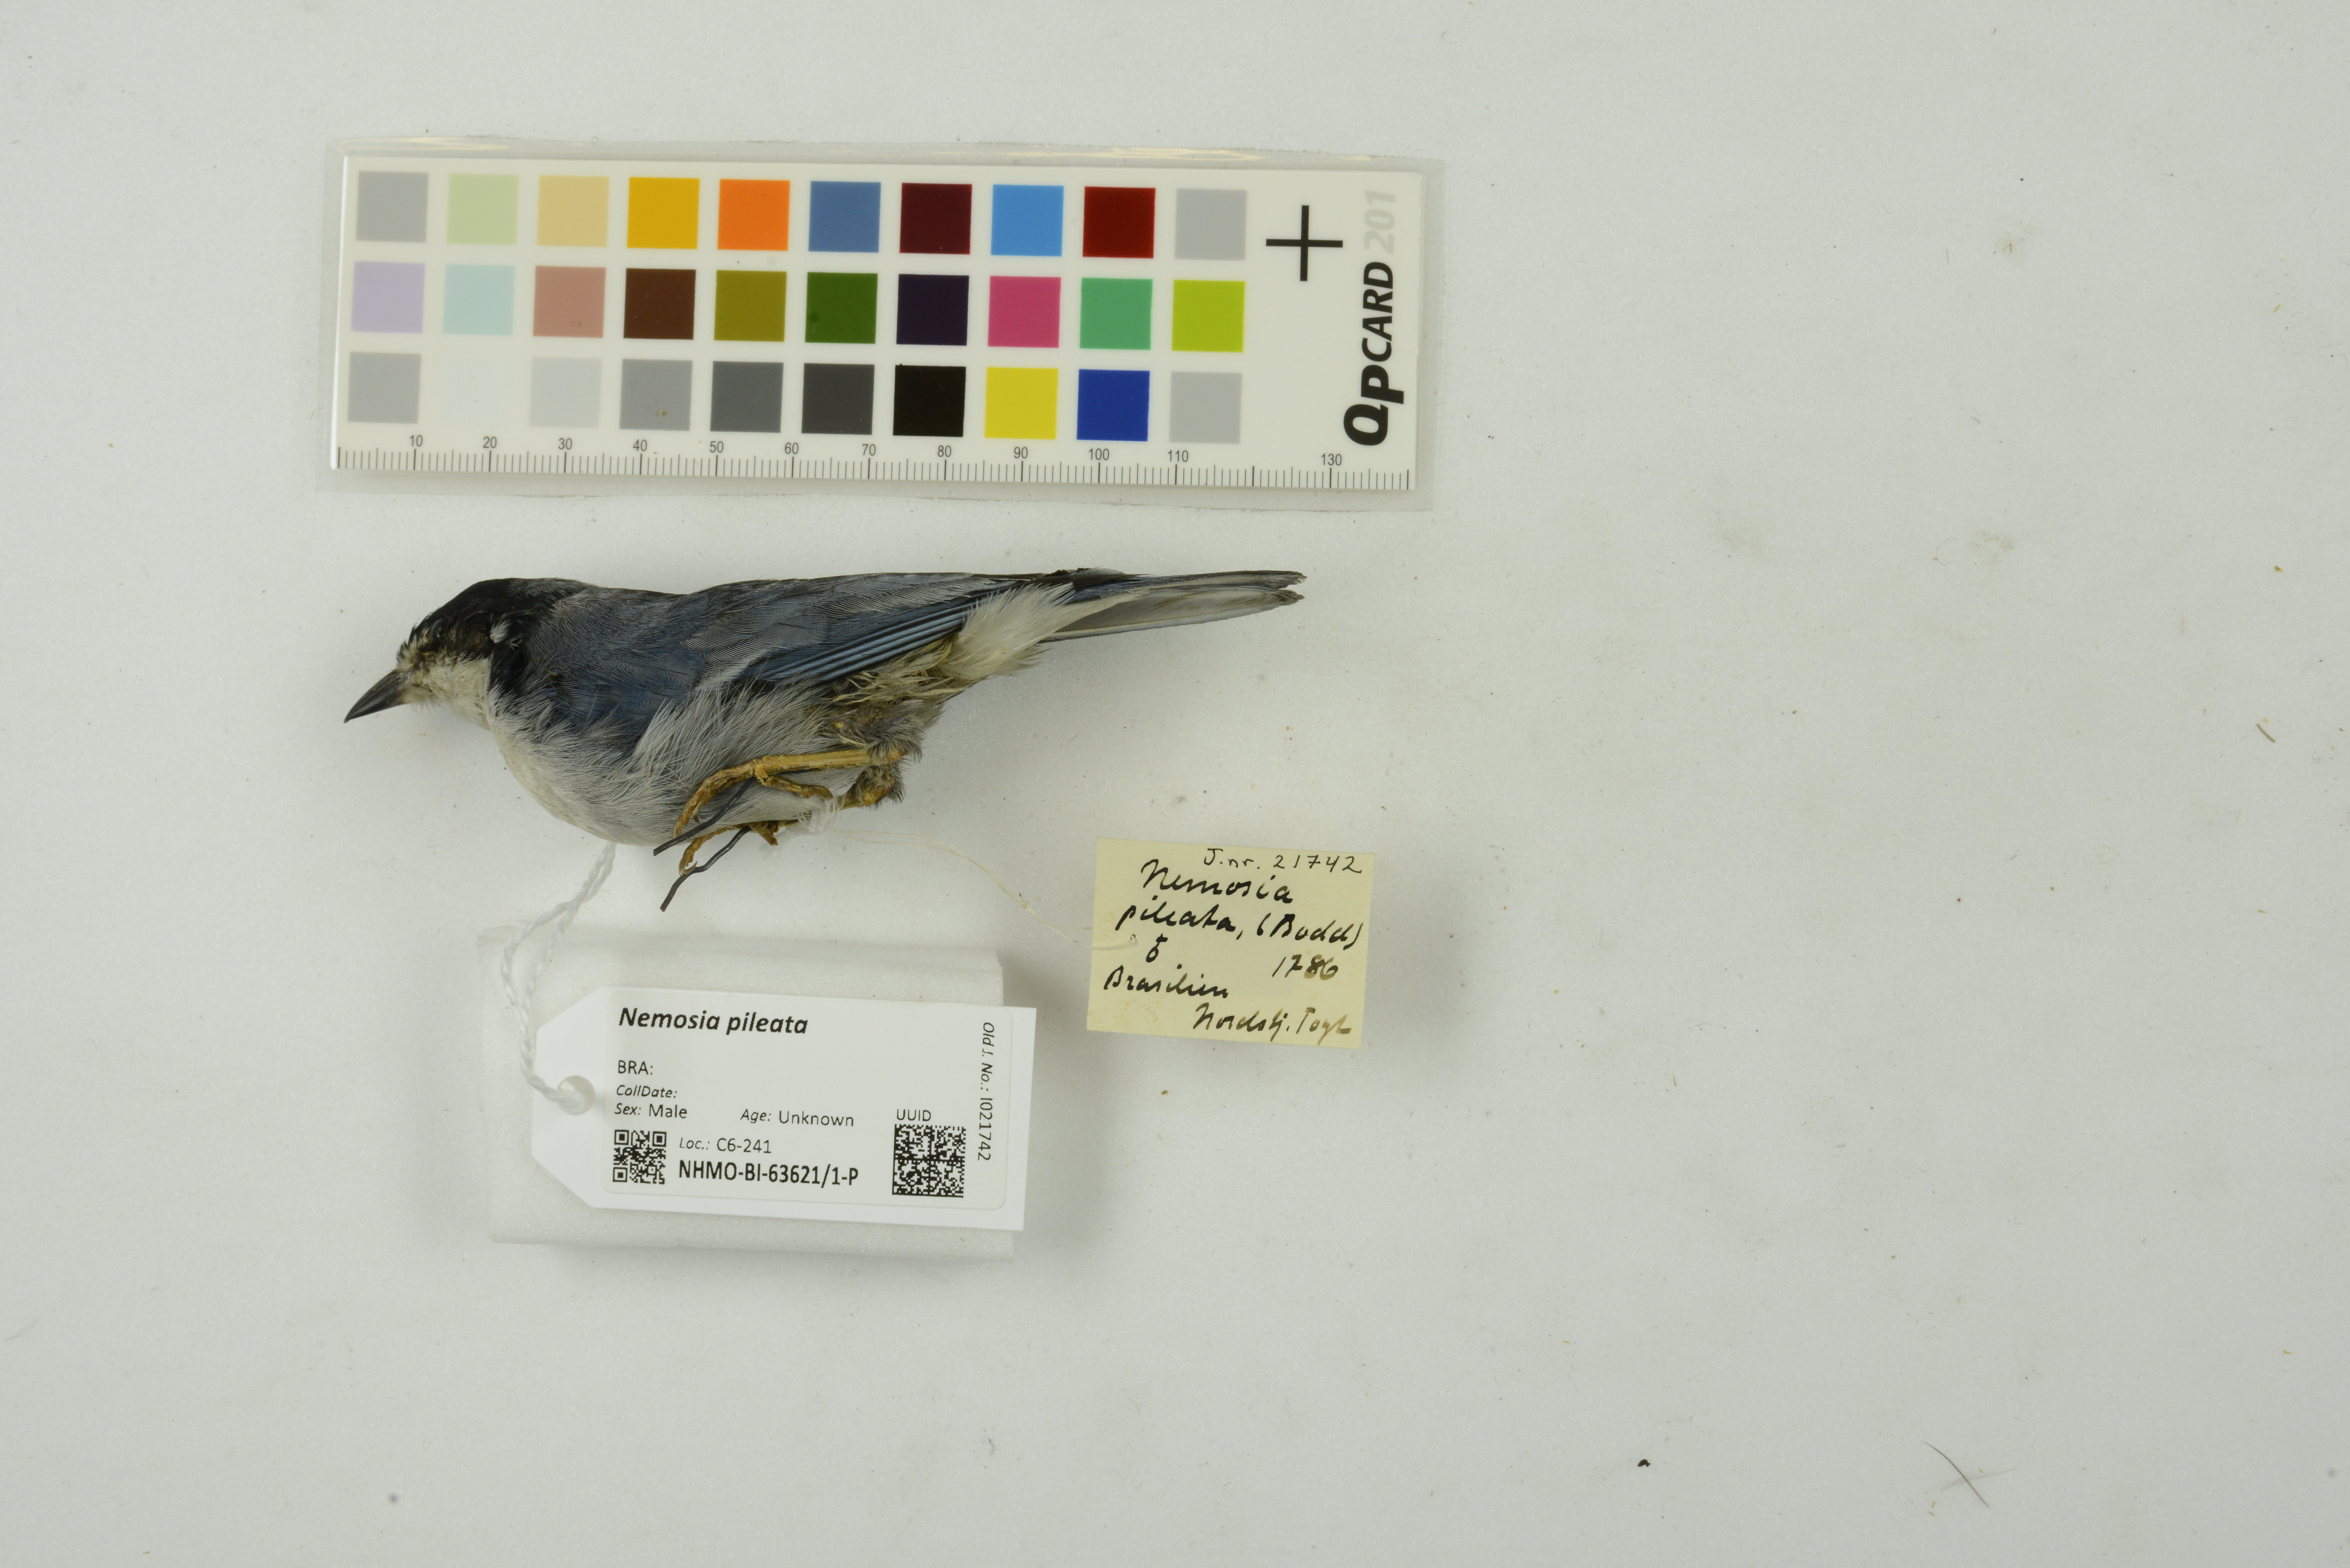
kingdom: Animalia
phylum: Chordata
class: Aves
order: Passeriformes
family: Thraupidae
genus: Nemosia
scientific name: Nemosia pileata
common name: Hooded tanager
